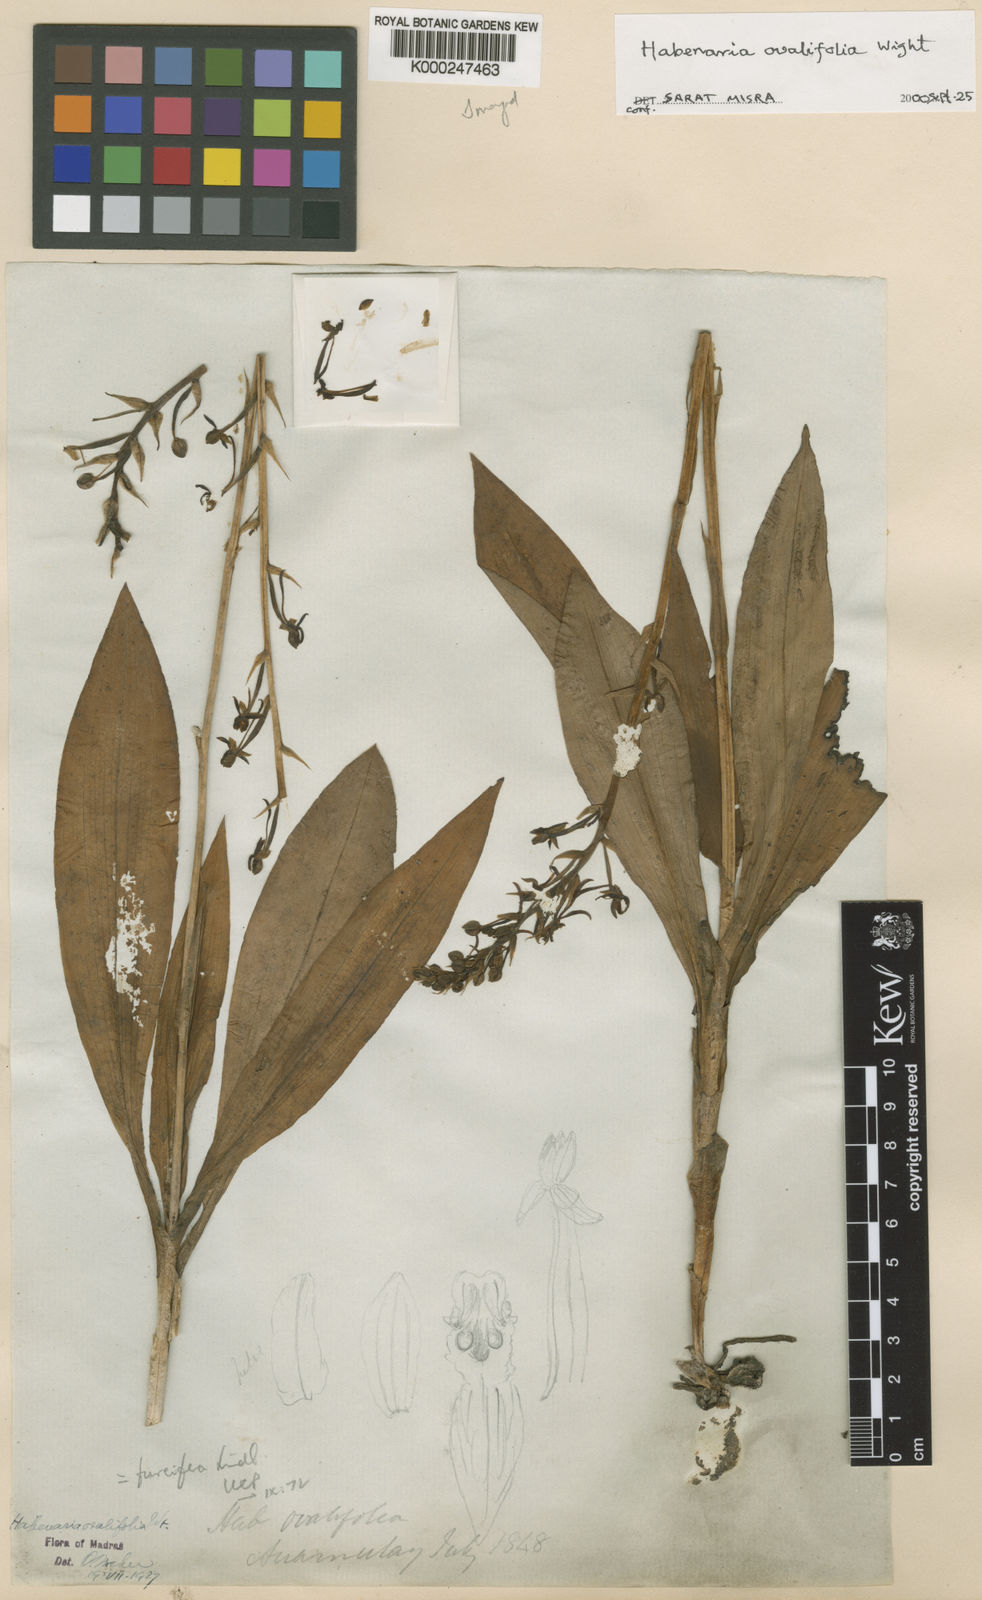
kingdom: Plantae
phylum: Tracheophyta
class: Liliopsida
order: Asparagales
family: Orchidaceae
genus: Habenaria
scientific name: Habenaria furcifera
